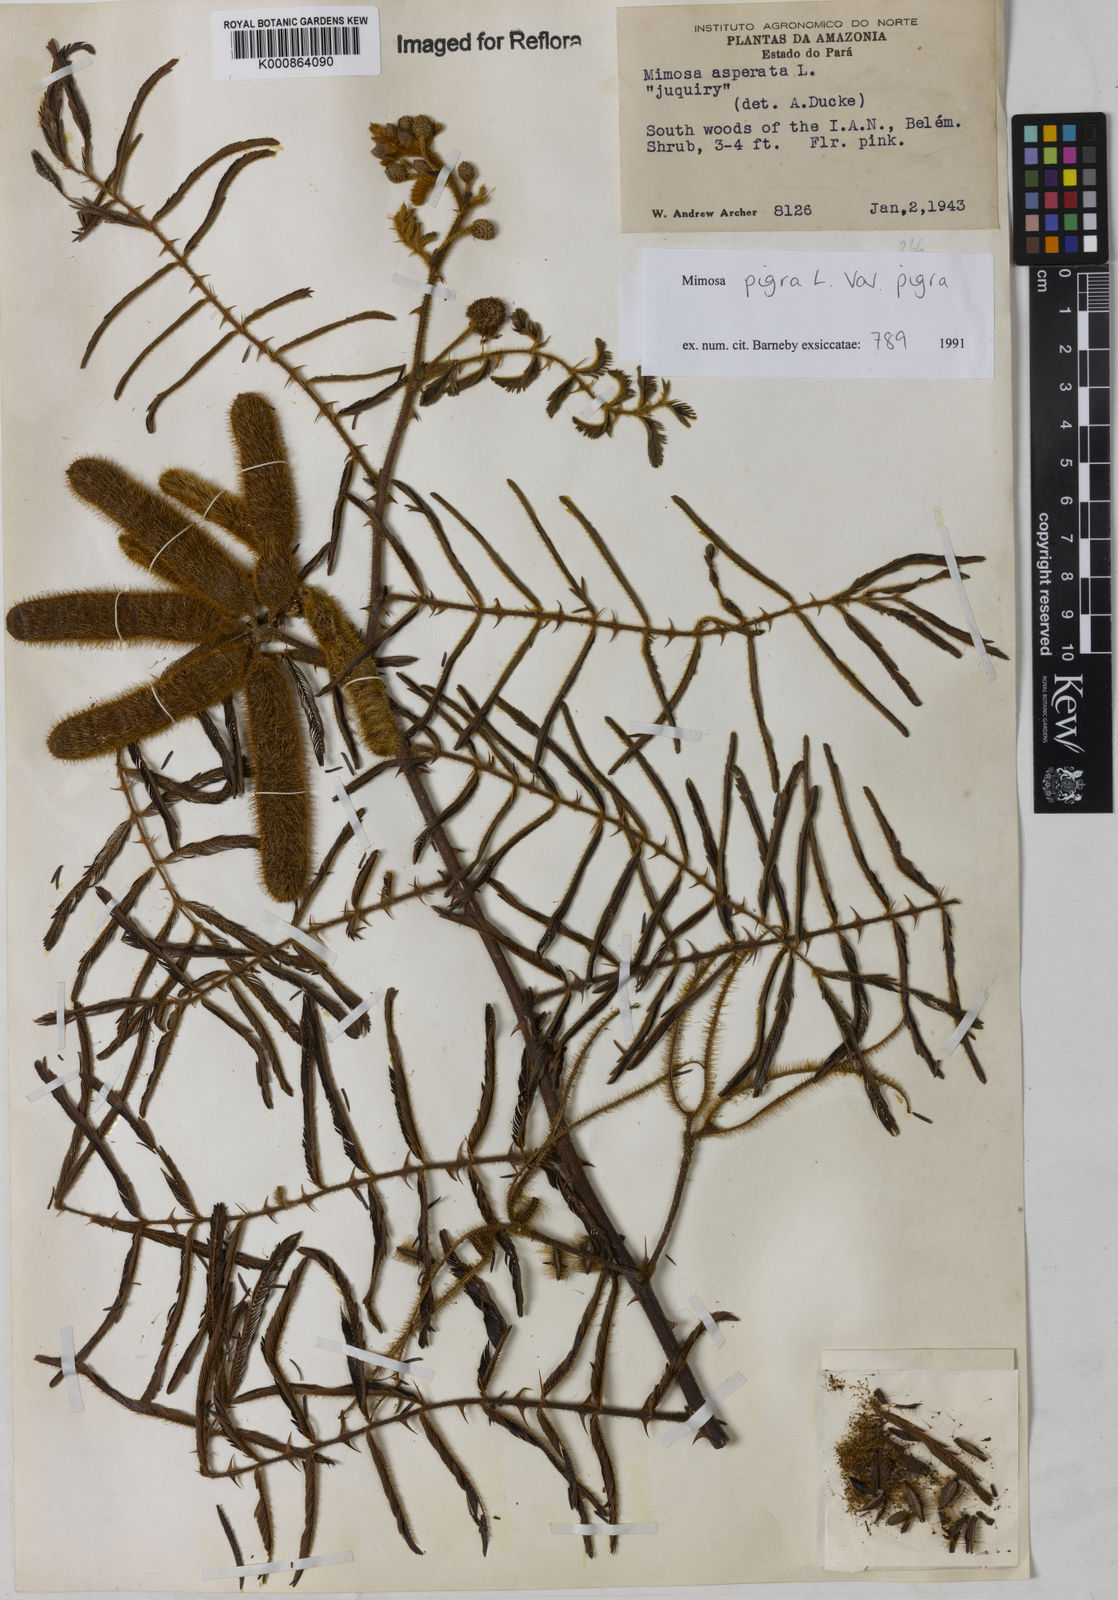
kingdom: Plantae
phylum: Tracheophyta
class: Magnoliopsida
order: Fabales
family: Fabaceae
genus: Mimosa
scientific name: Mimosa pigra
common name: Black mimosa
